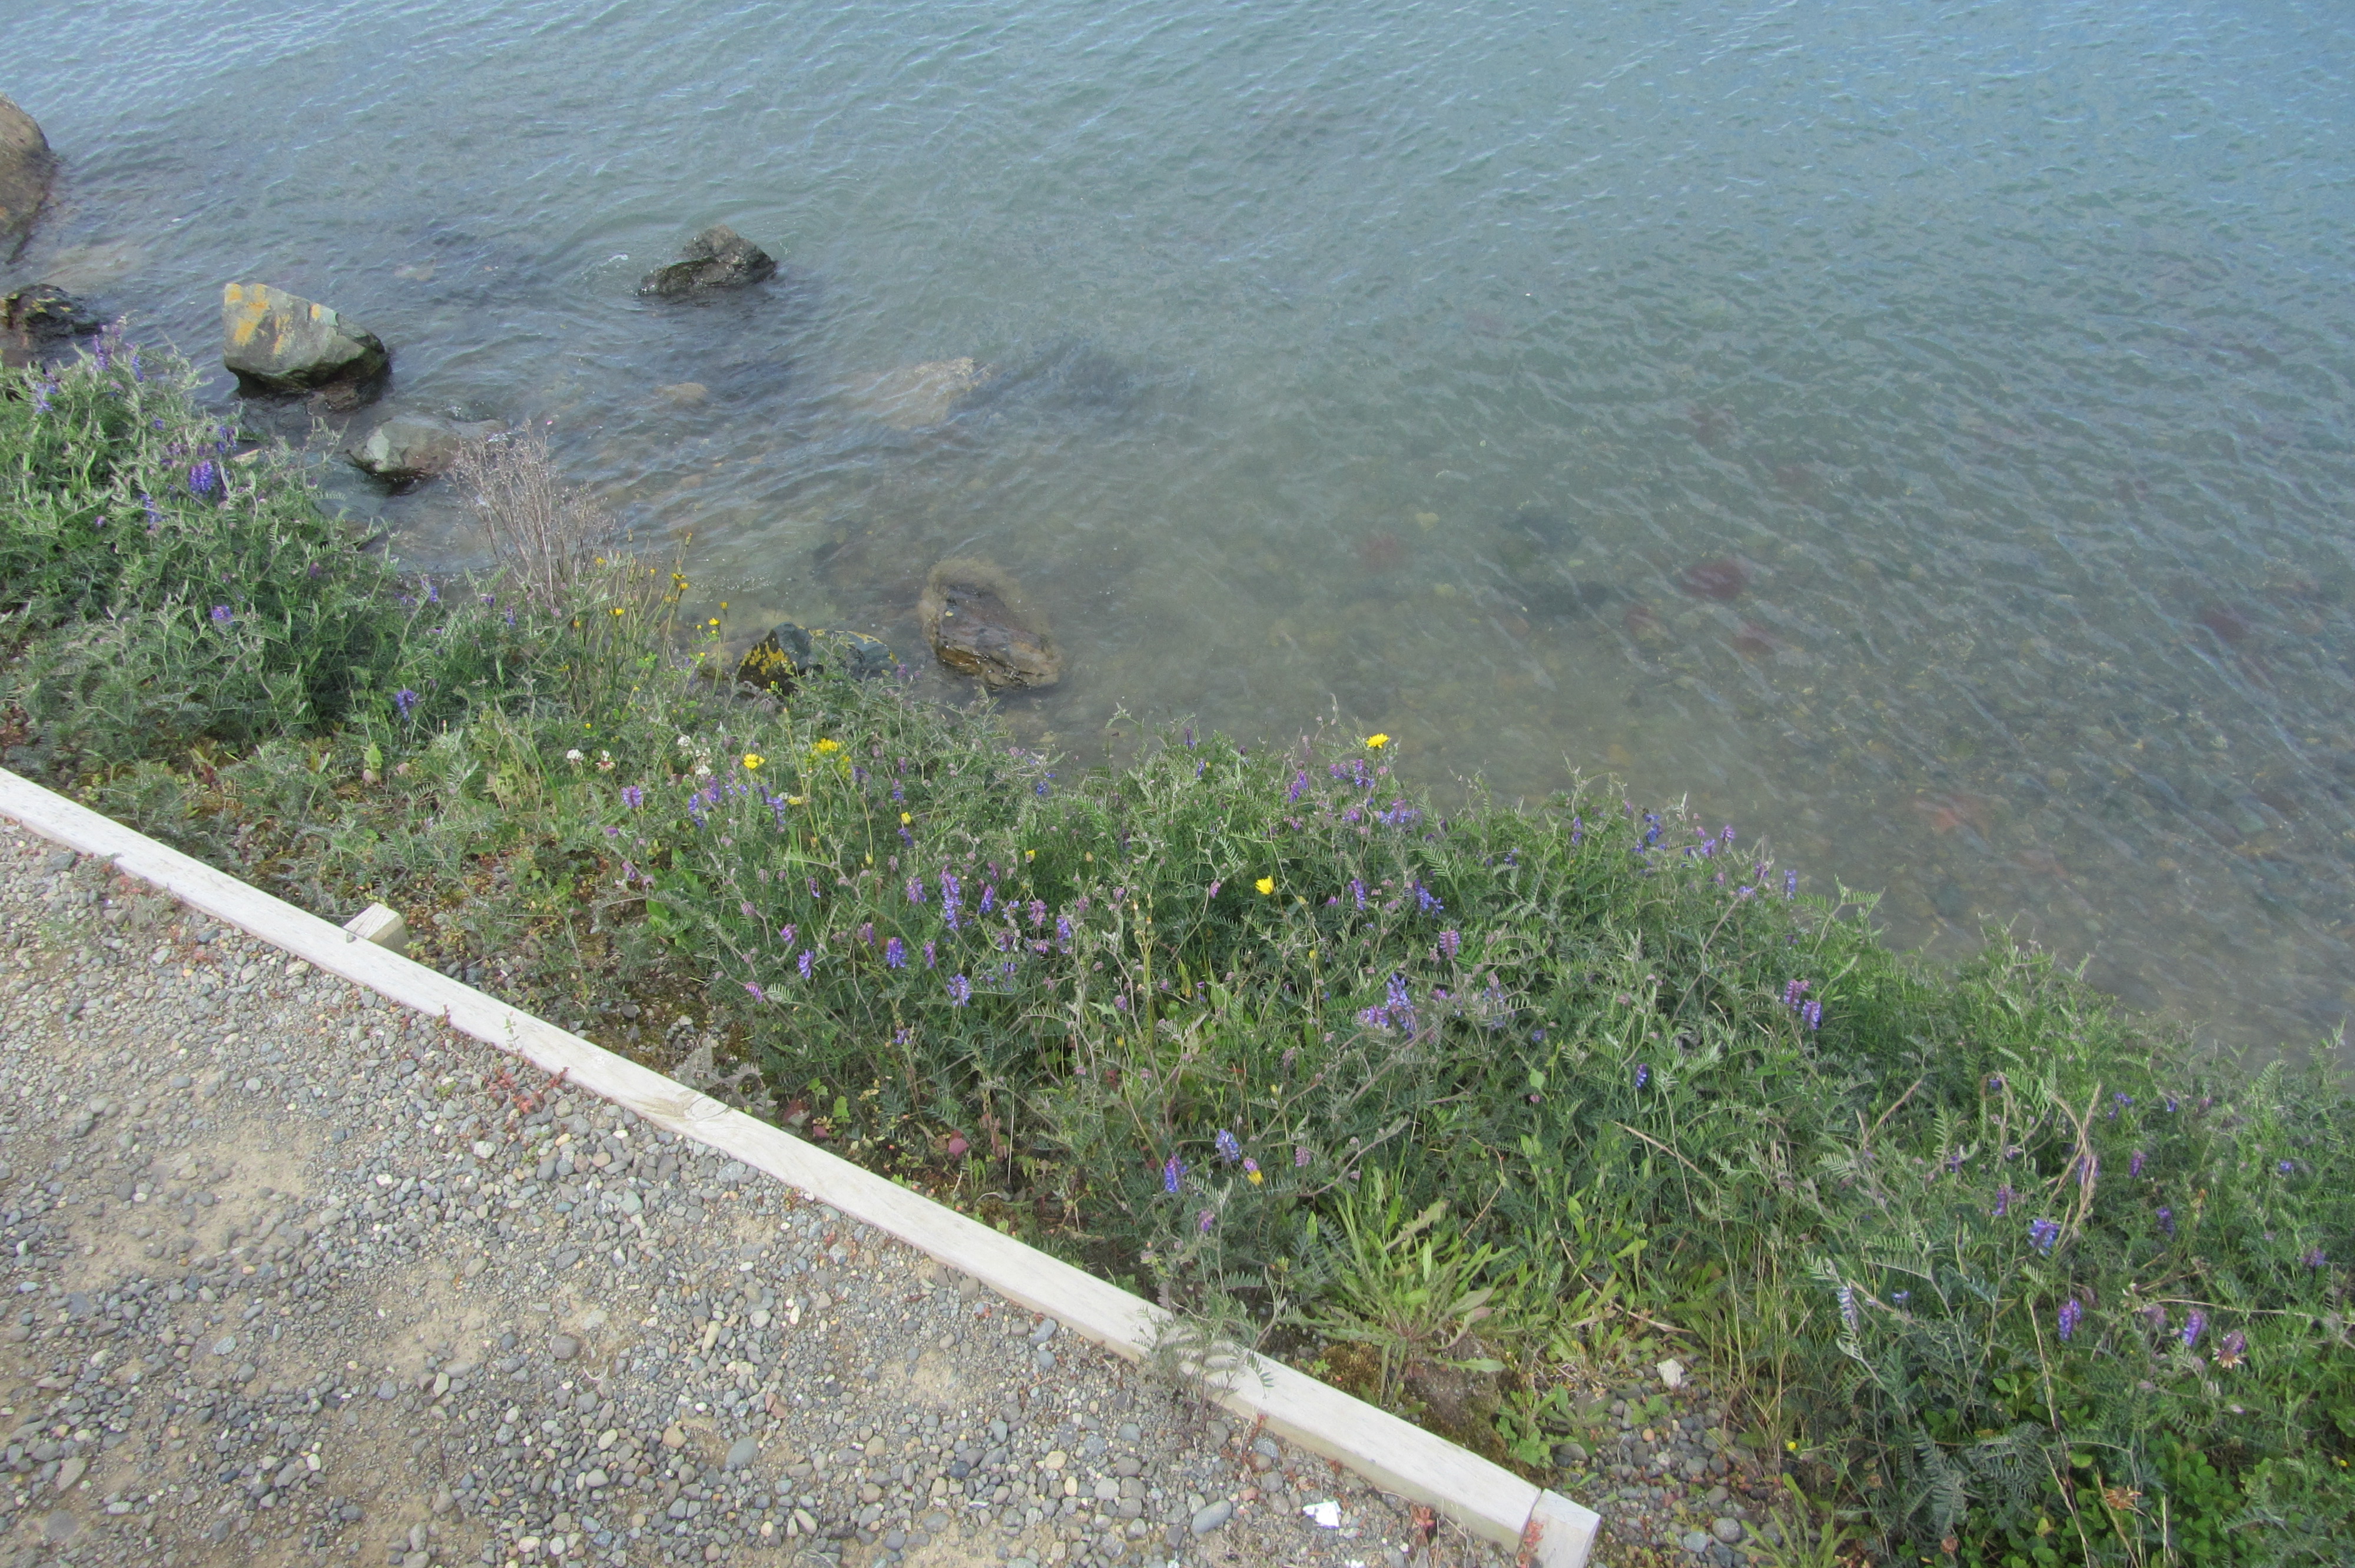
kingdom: Plantae
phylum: Tracheophyta
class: Magnoliopsida
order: Fabales
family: Fabaceae
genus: Vicia
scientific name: Vicia cracca
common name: Bird vetch
